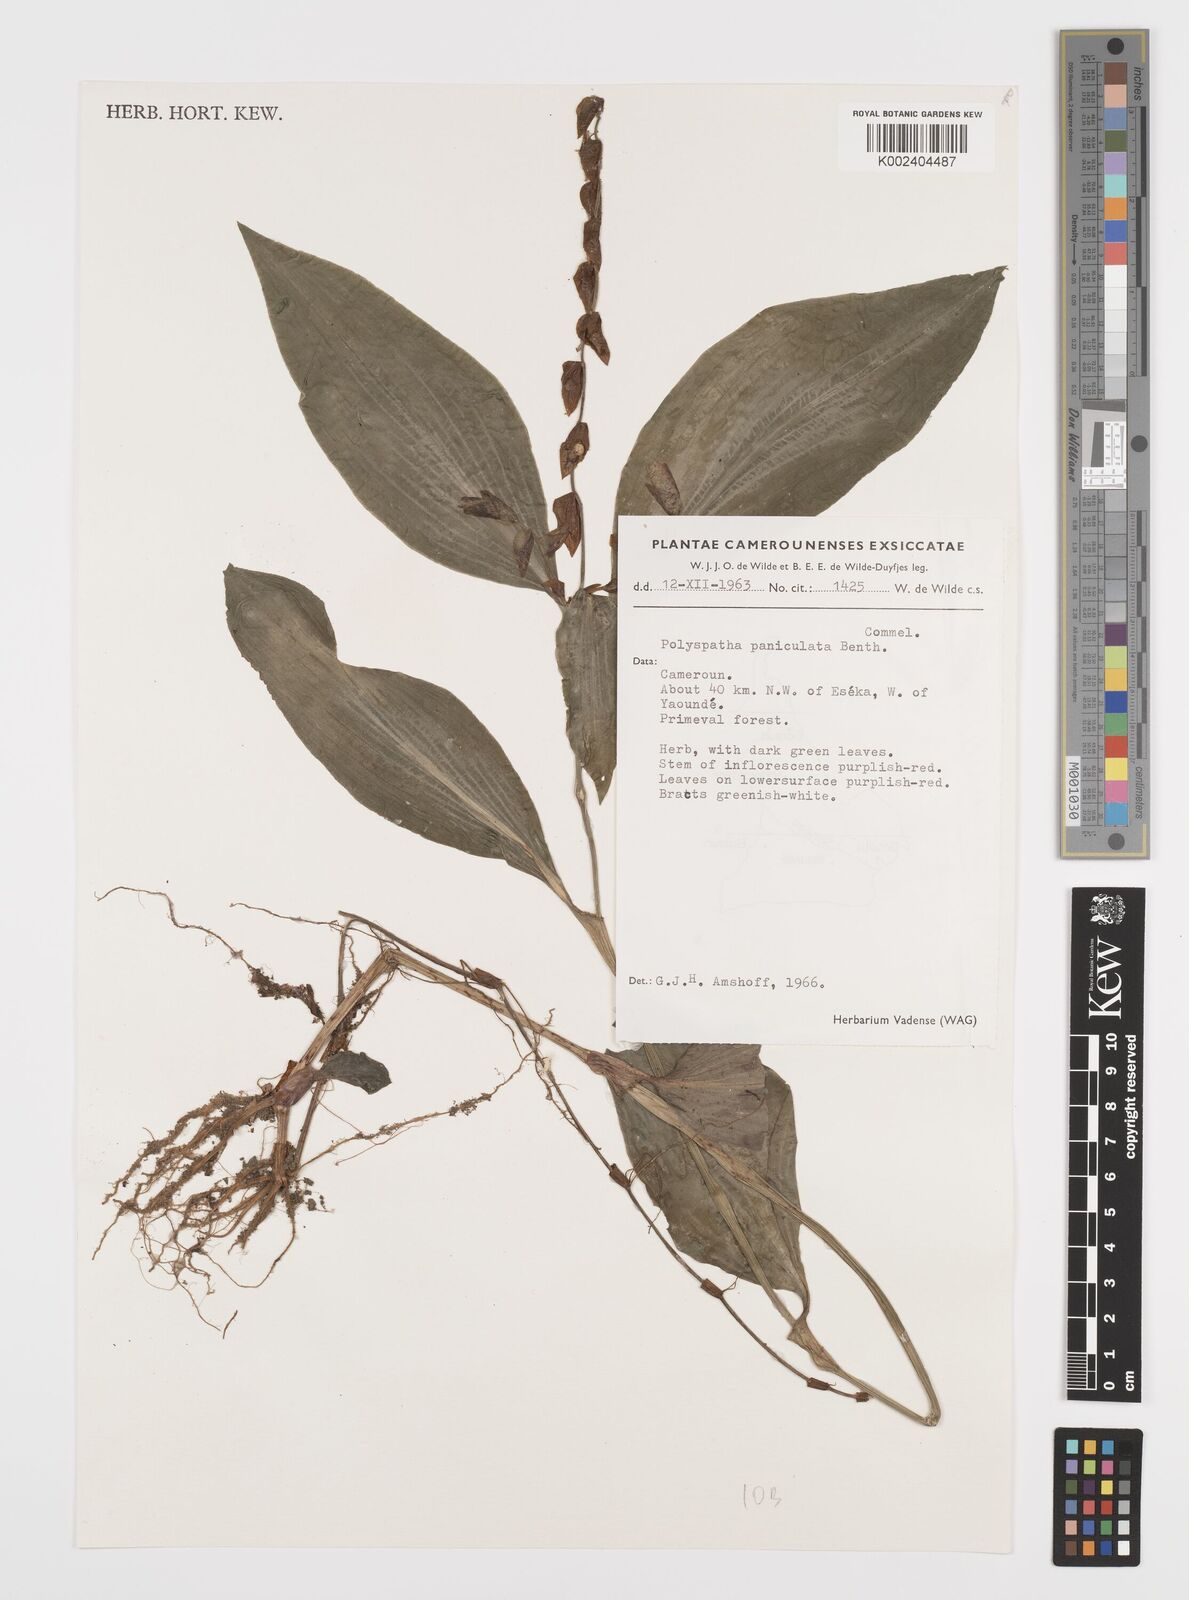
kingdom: Plantae
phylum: Tracheophyta
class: Liliopsida
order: Commelinales
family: Commelinaceae
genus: Polyspatha
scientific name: Polyspatha paniculata
